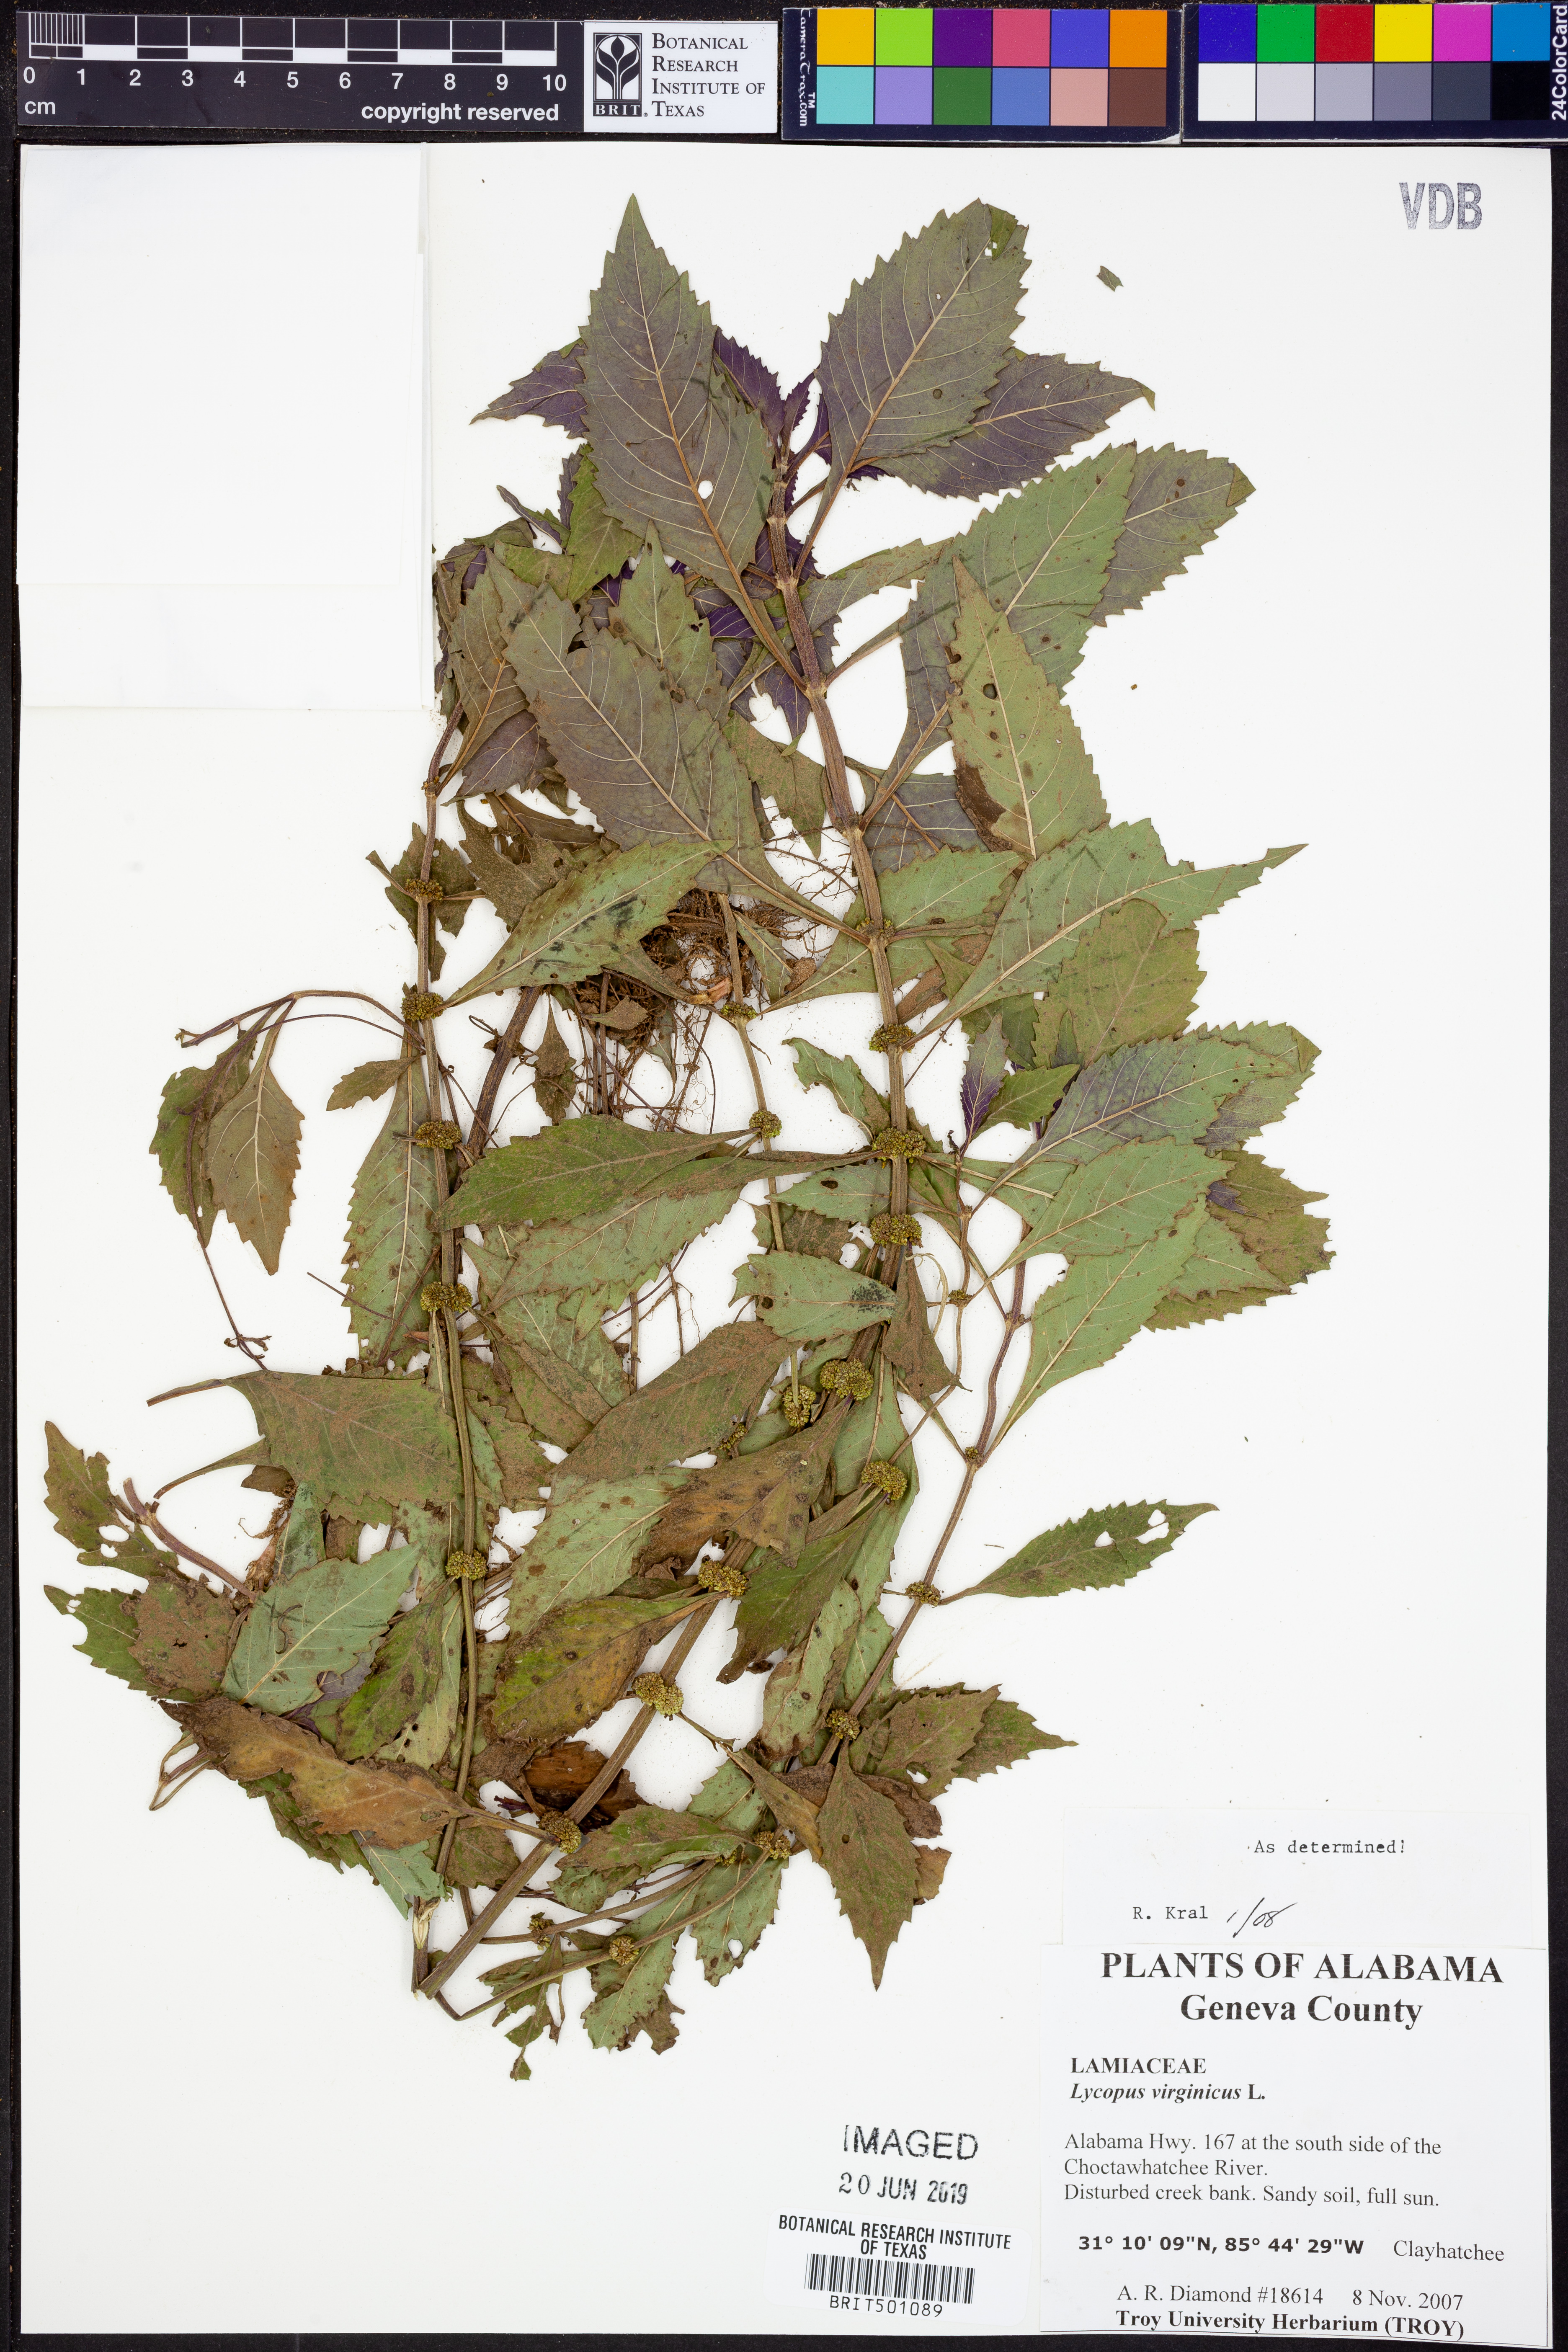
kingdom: Plantae
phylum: Tracheophyta
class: Magnoliopsida
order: Lamiales
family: Lamiaceae
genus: Lycopus
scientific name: Lycopus virginicus
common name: Bugleweed
